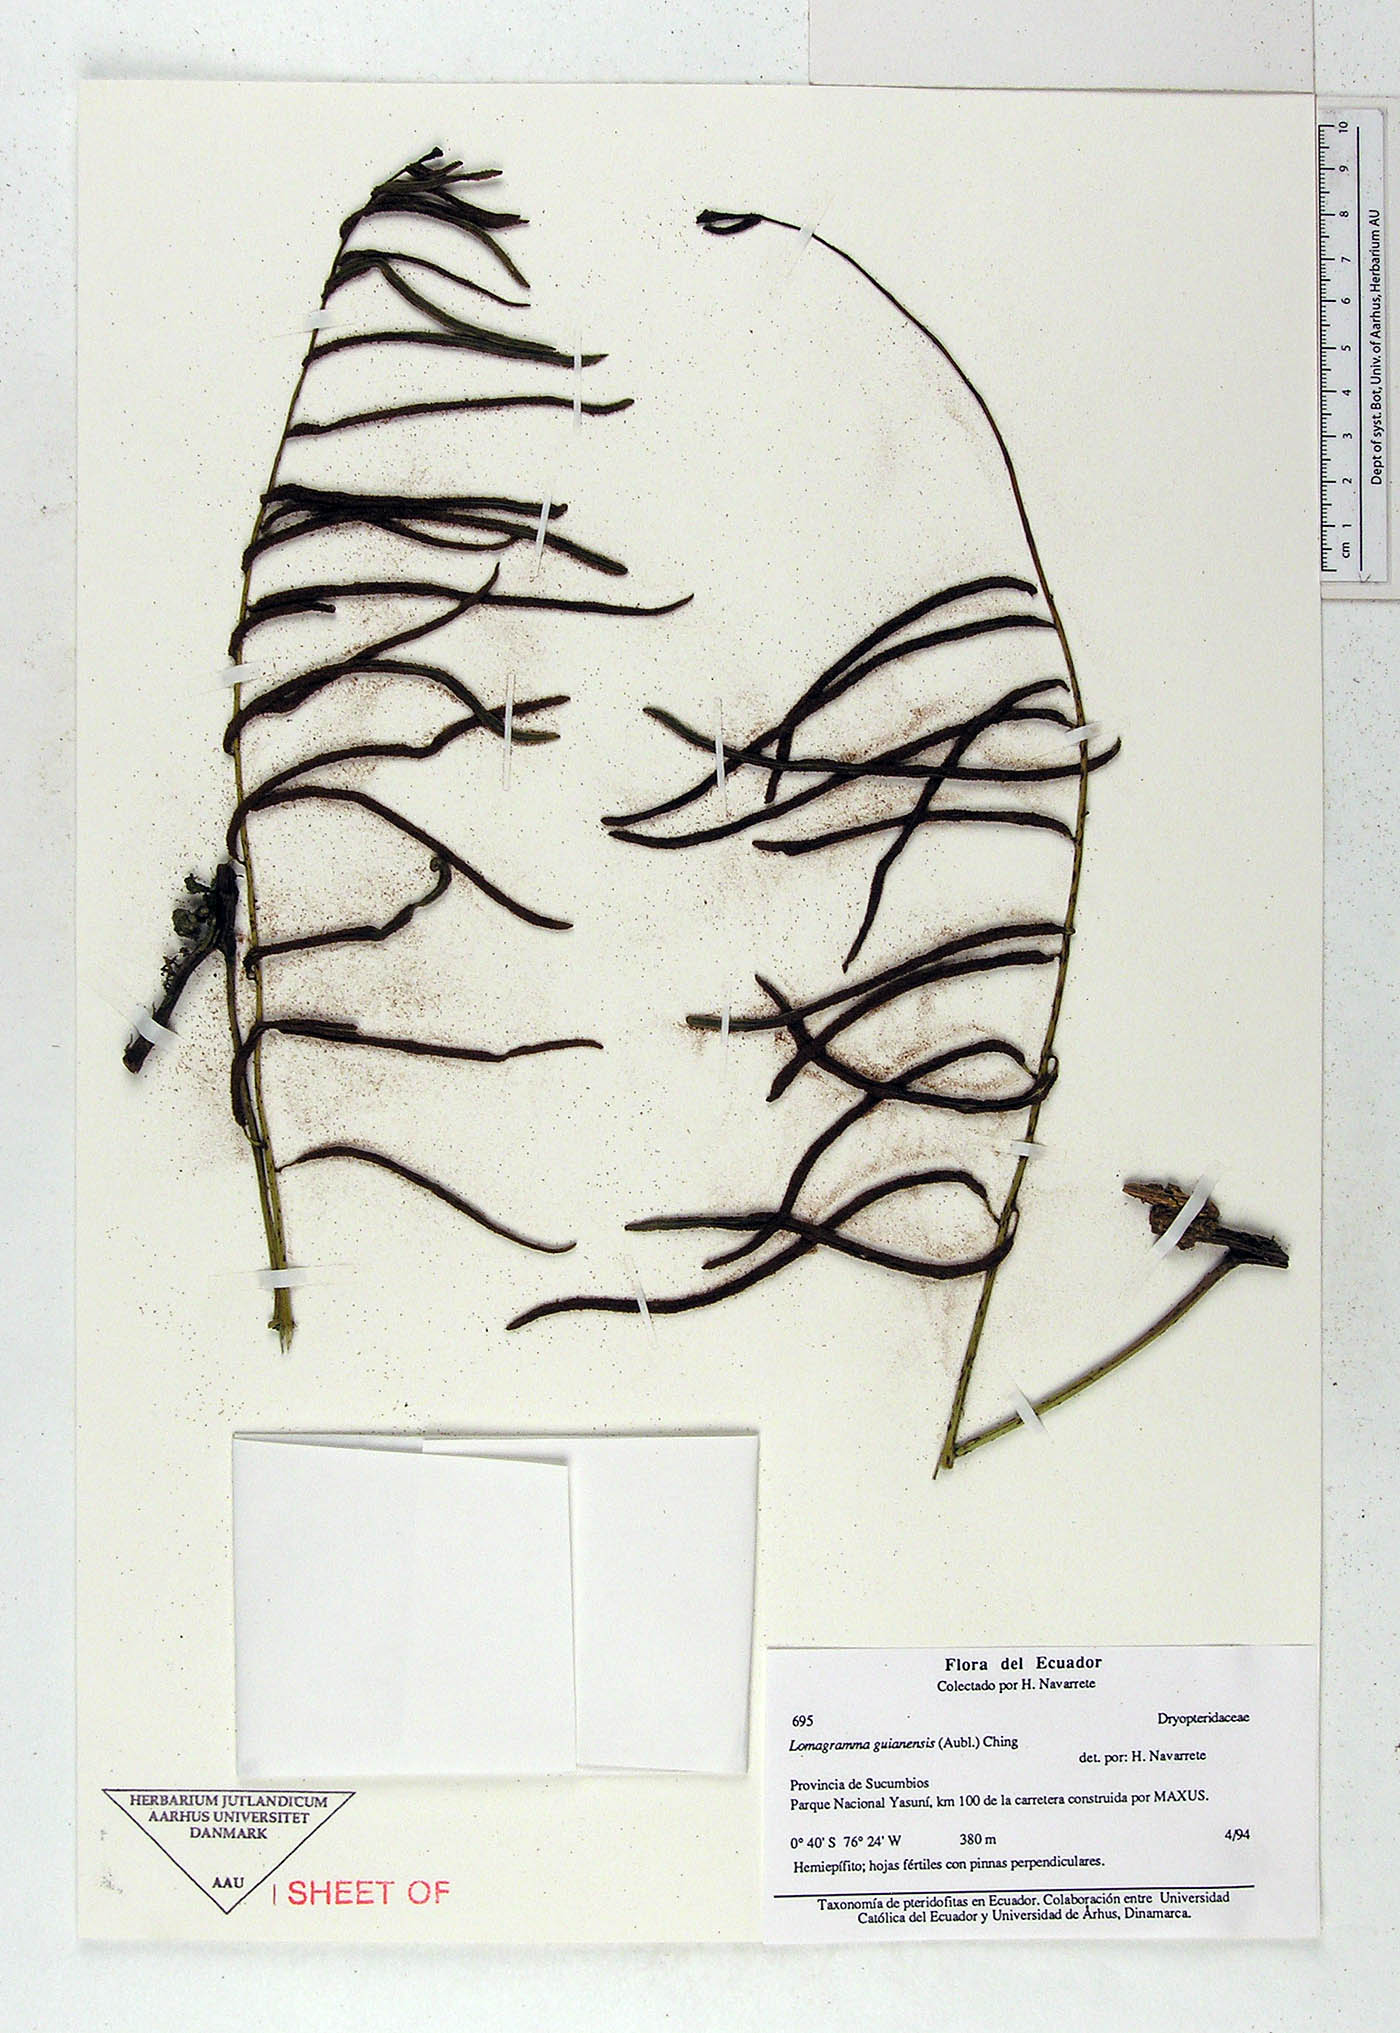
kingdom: Plantae
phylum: Tracheophyta
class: Polypodiopsida
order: Polypodiales
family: Dryopteridaceae
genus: Bolbitis
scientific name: Bolbitis
